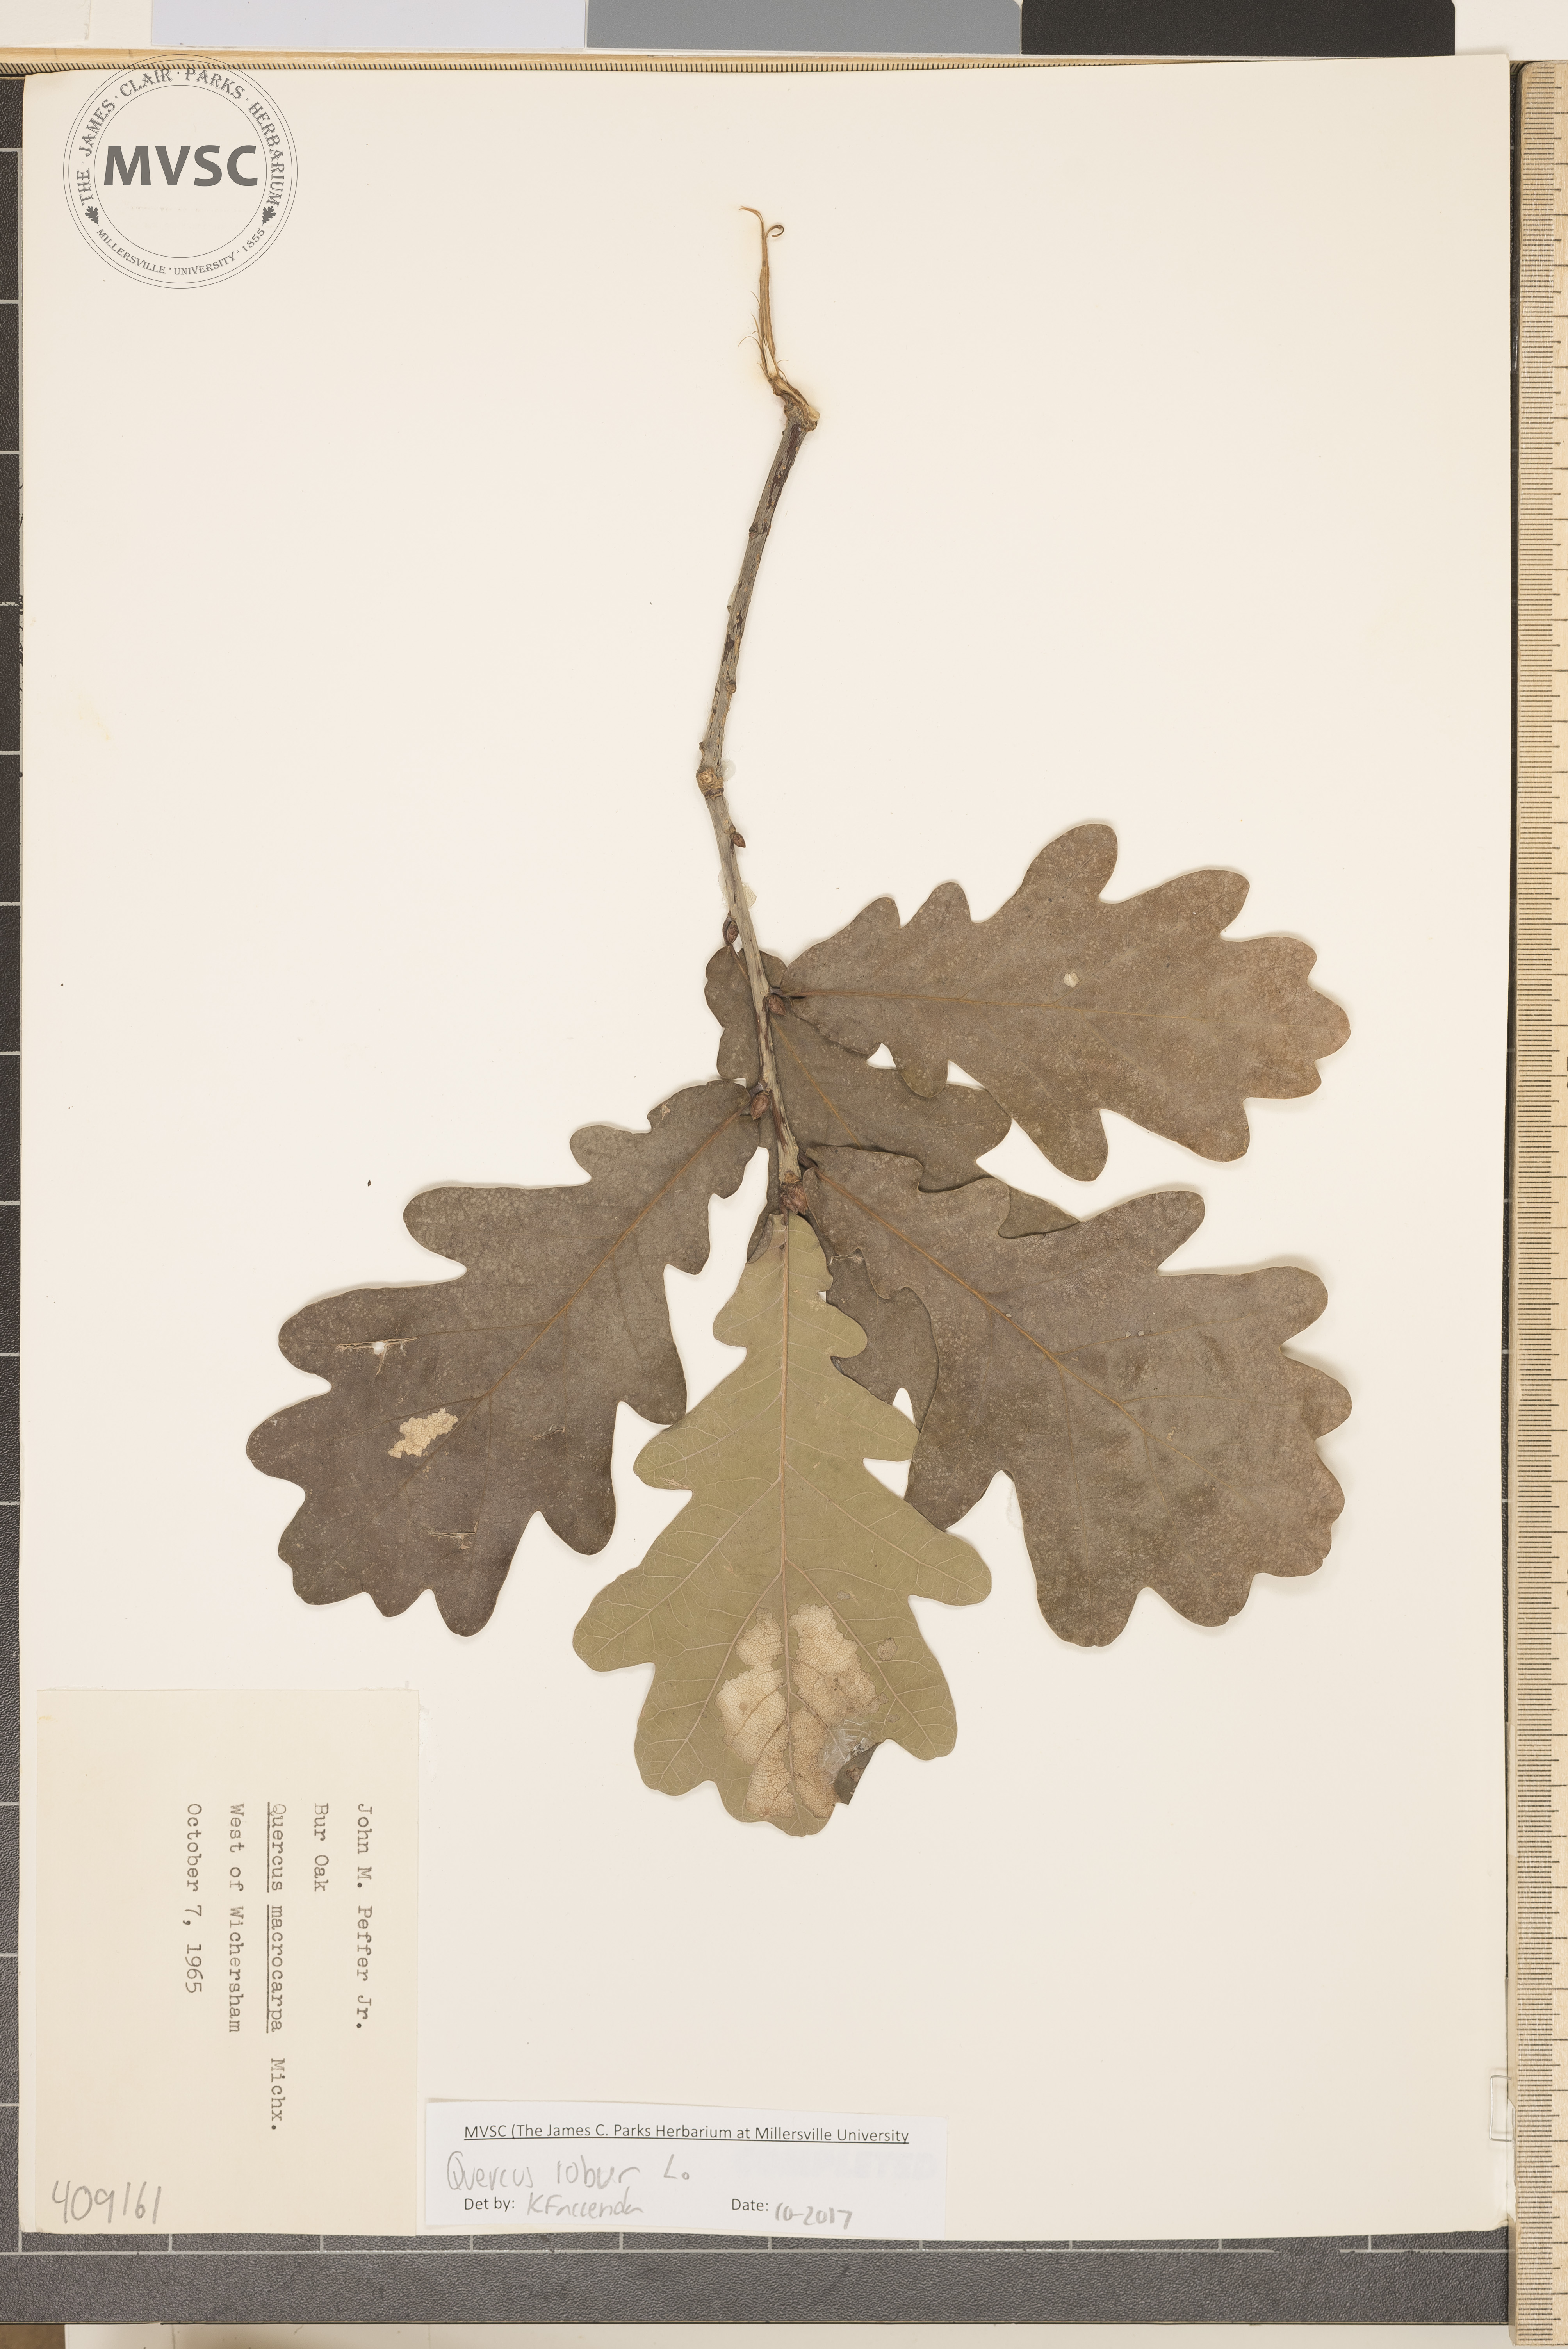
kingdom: Plantae
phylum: Tracheophyta
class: Magnoliopsida
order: Fagales
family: Fagaceae
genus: Quercus
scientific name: Quercus robur
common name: Bur Oak
